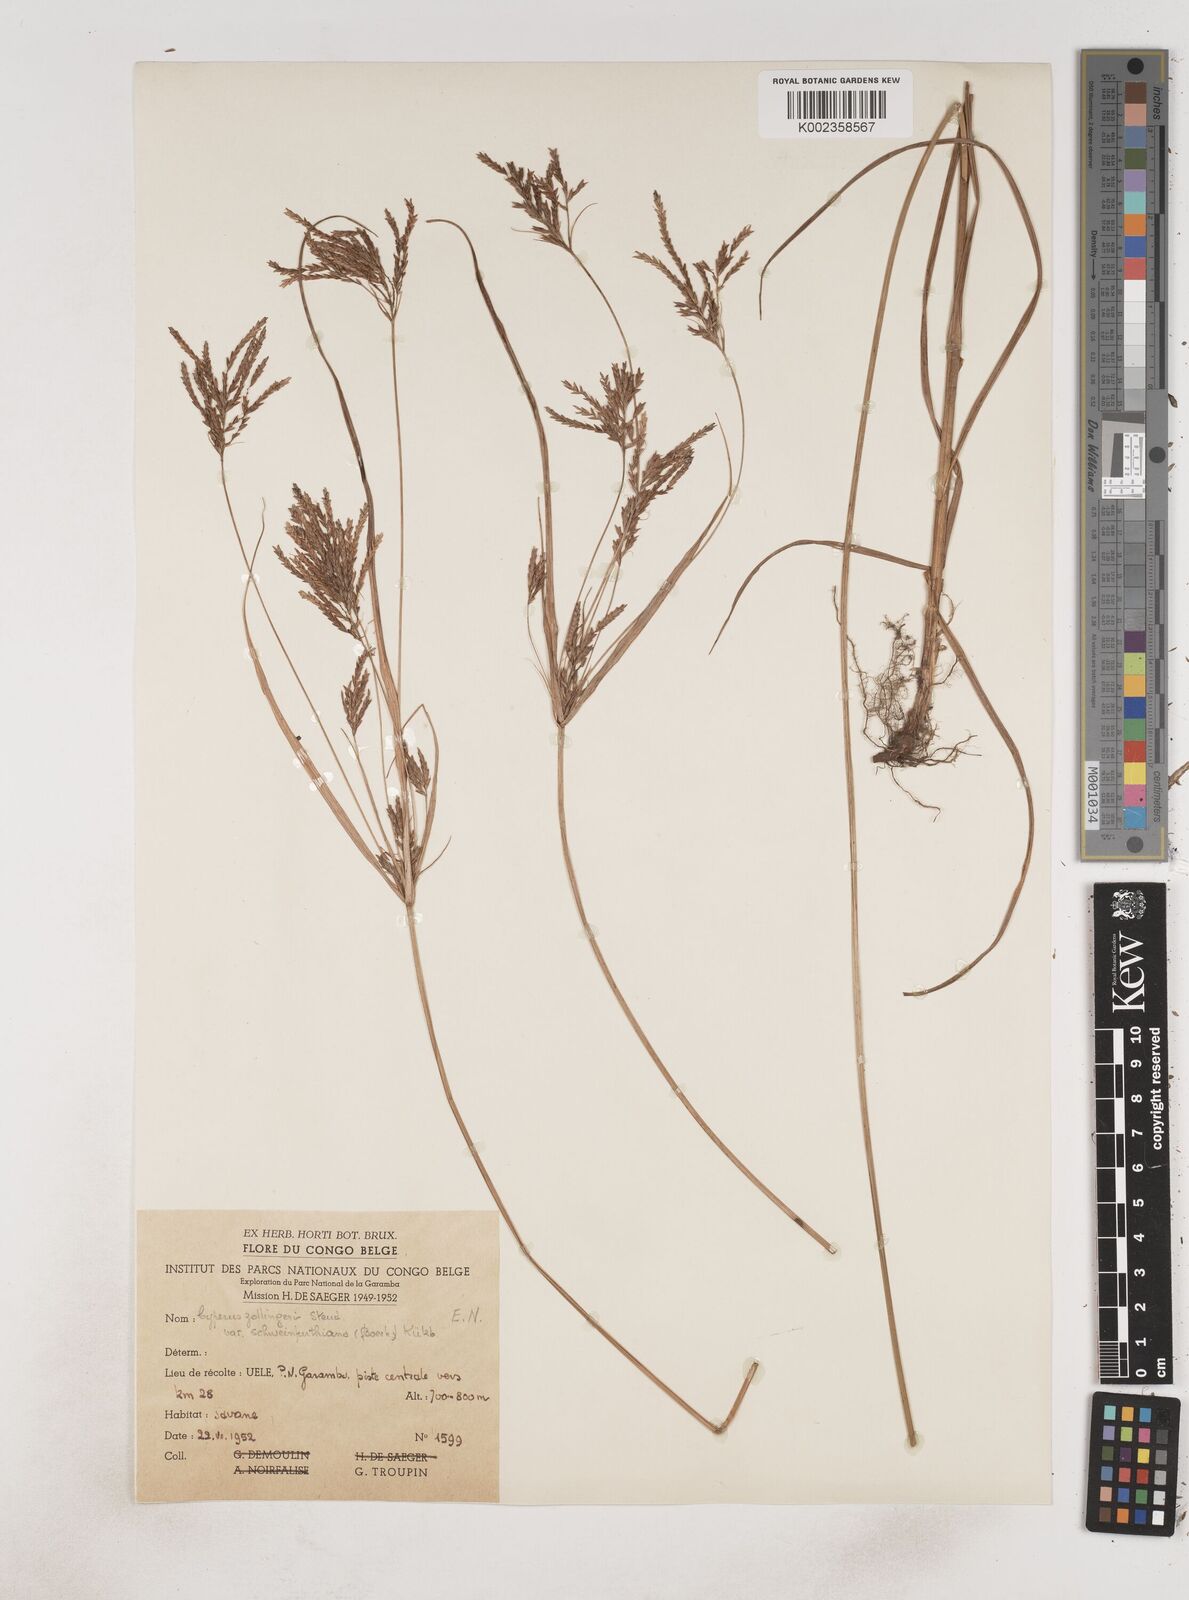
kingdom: Plantae
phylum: Tracheophyta
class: Liliopsida
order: Poales
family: Cyperaceae
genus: Cyperus
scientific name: Cyperus tenuiculmis
